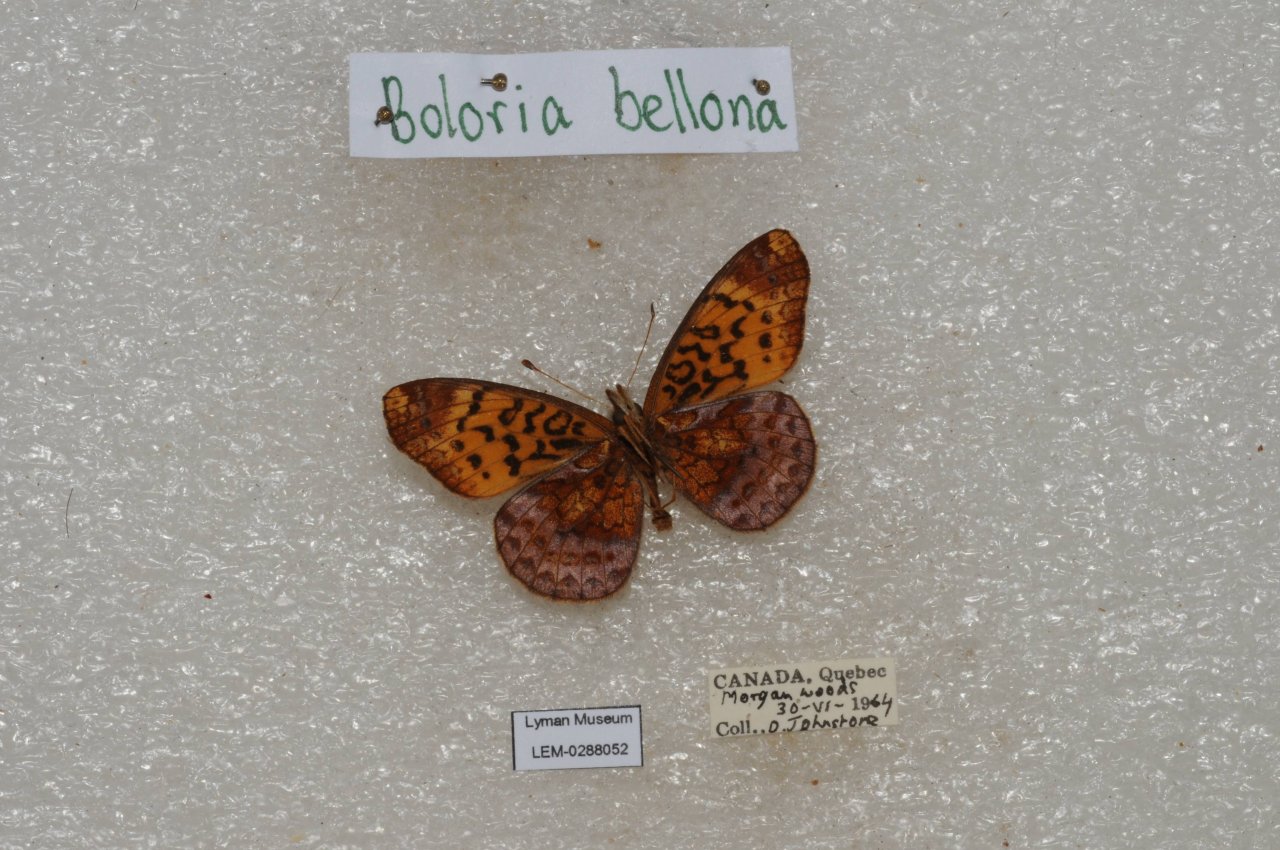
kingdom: Animalia
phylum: Arthropoda
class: Insecta
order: Lepidoptera
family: Nymphalidae
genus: Clossiana
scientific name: Clossiana toddi
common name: Meadow Fritillary
